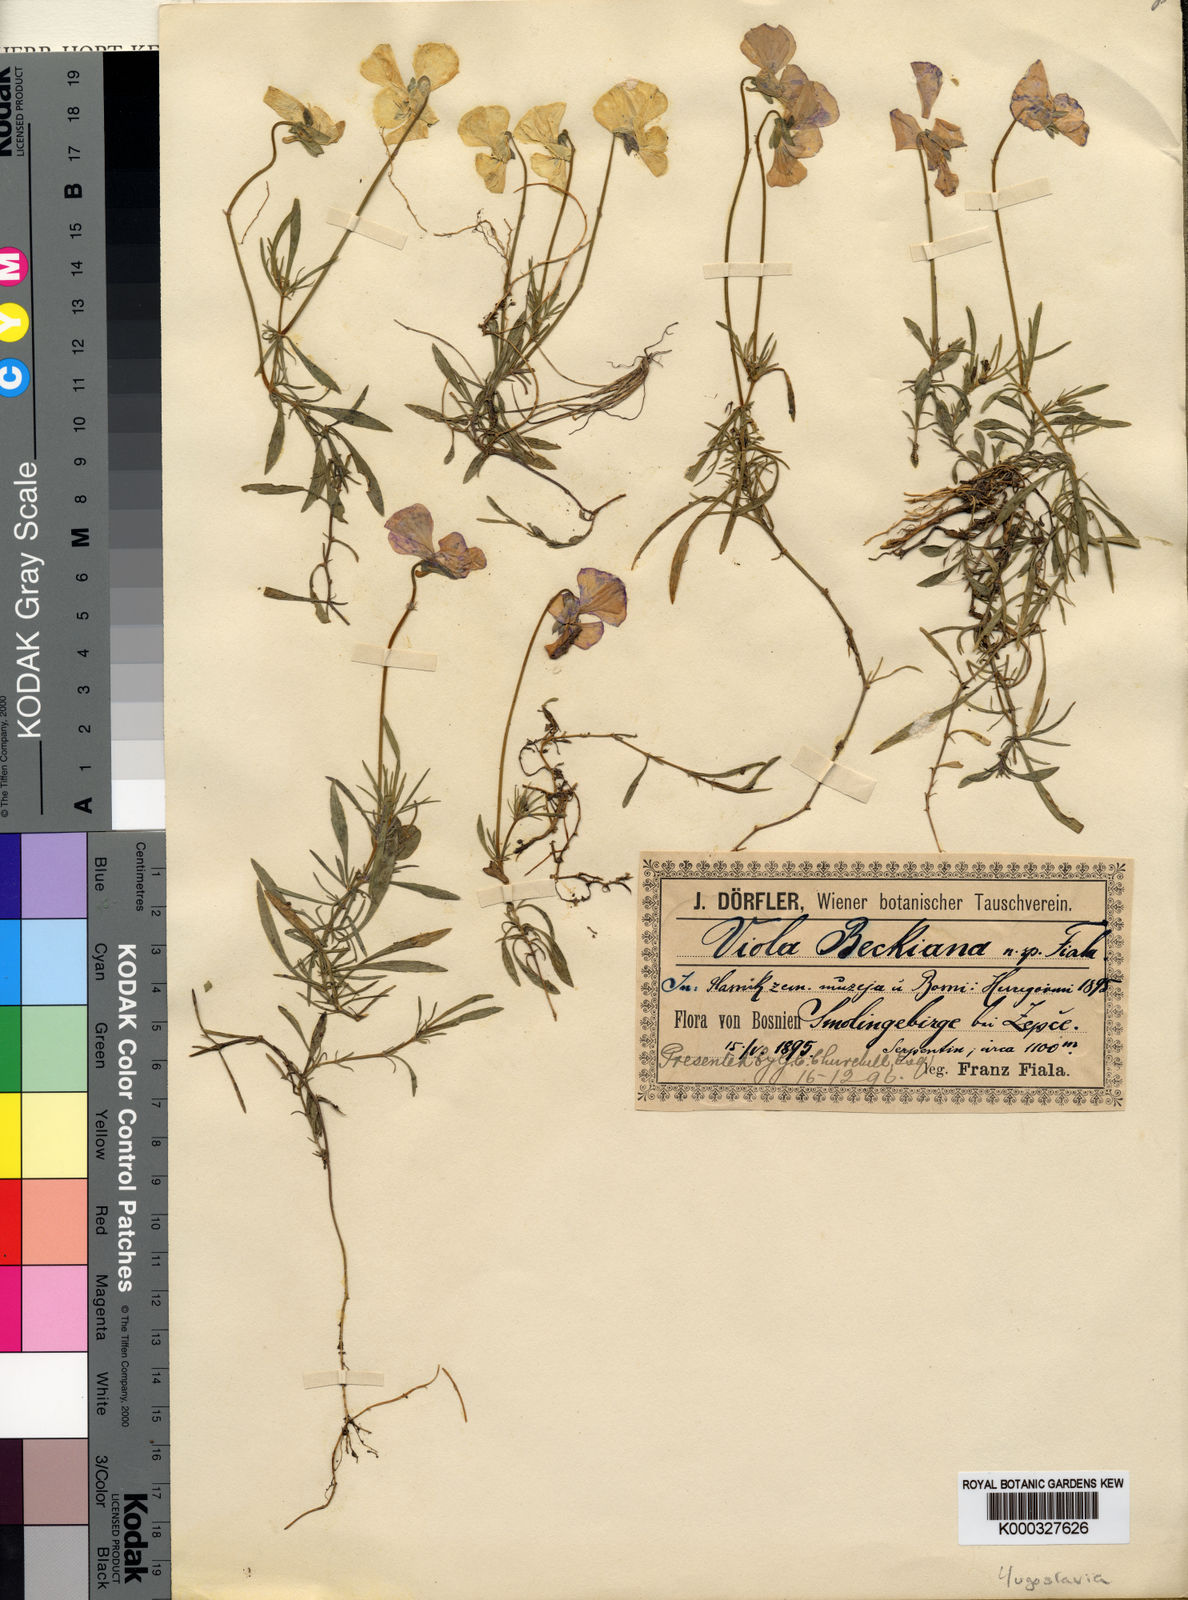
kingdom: Plantae
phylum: Tracheophyta
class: Magnoliopsida
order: Malpighiales
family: Violaceae
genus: Viola
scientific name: Viola
